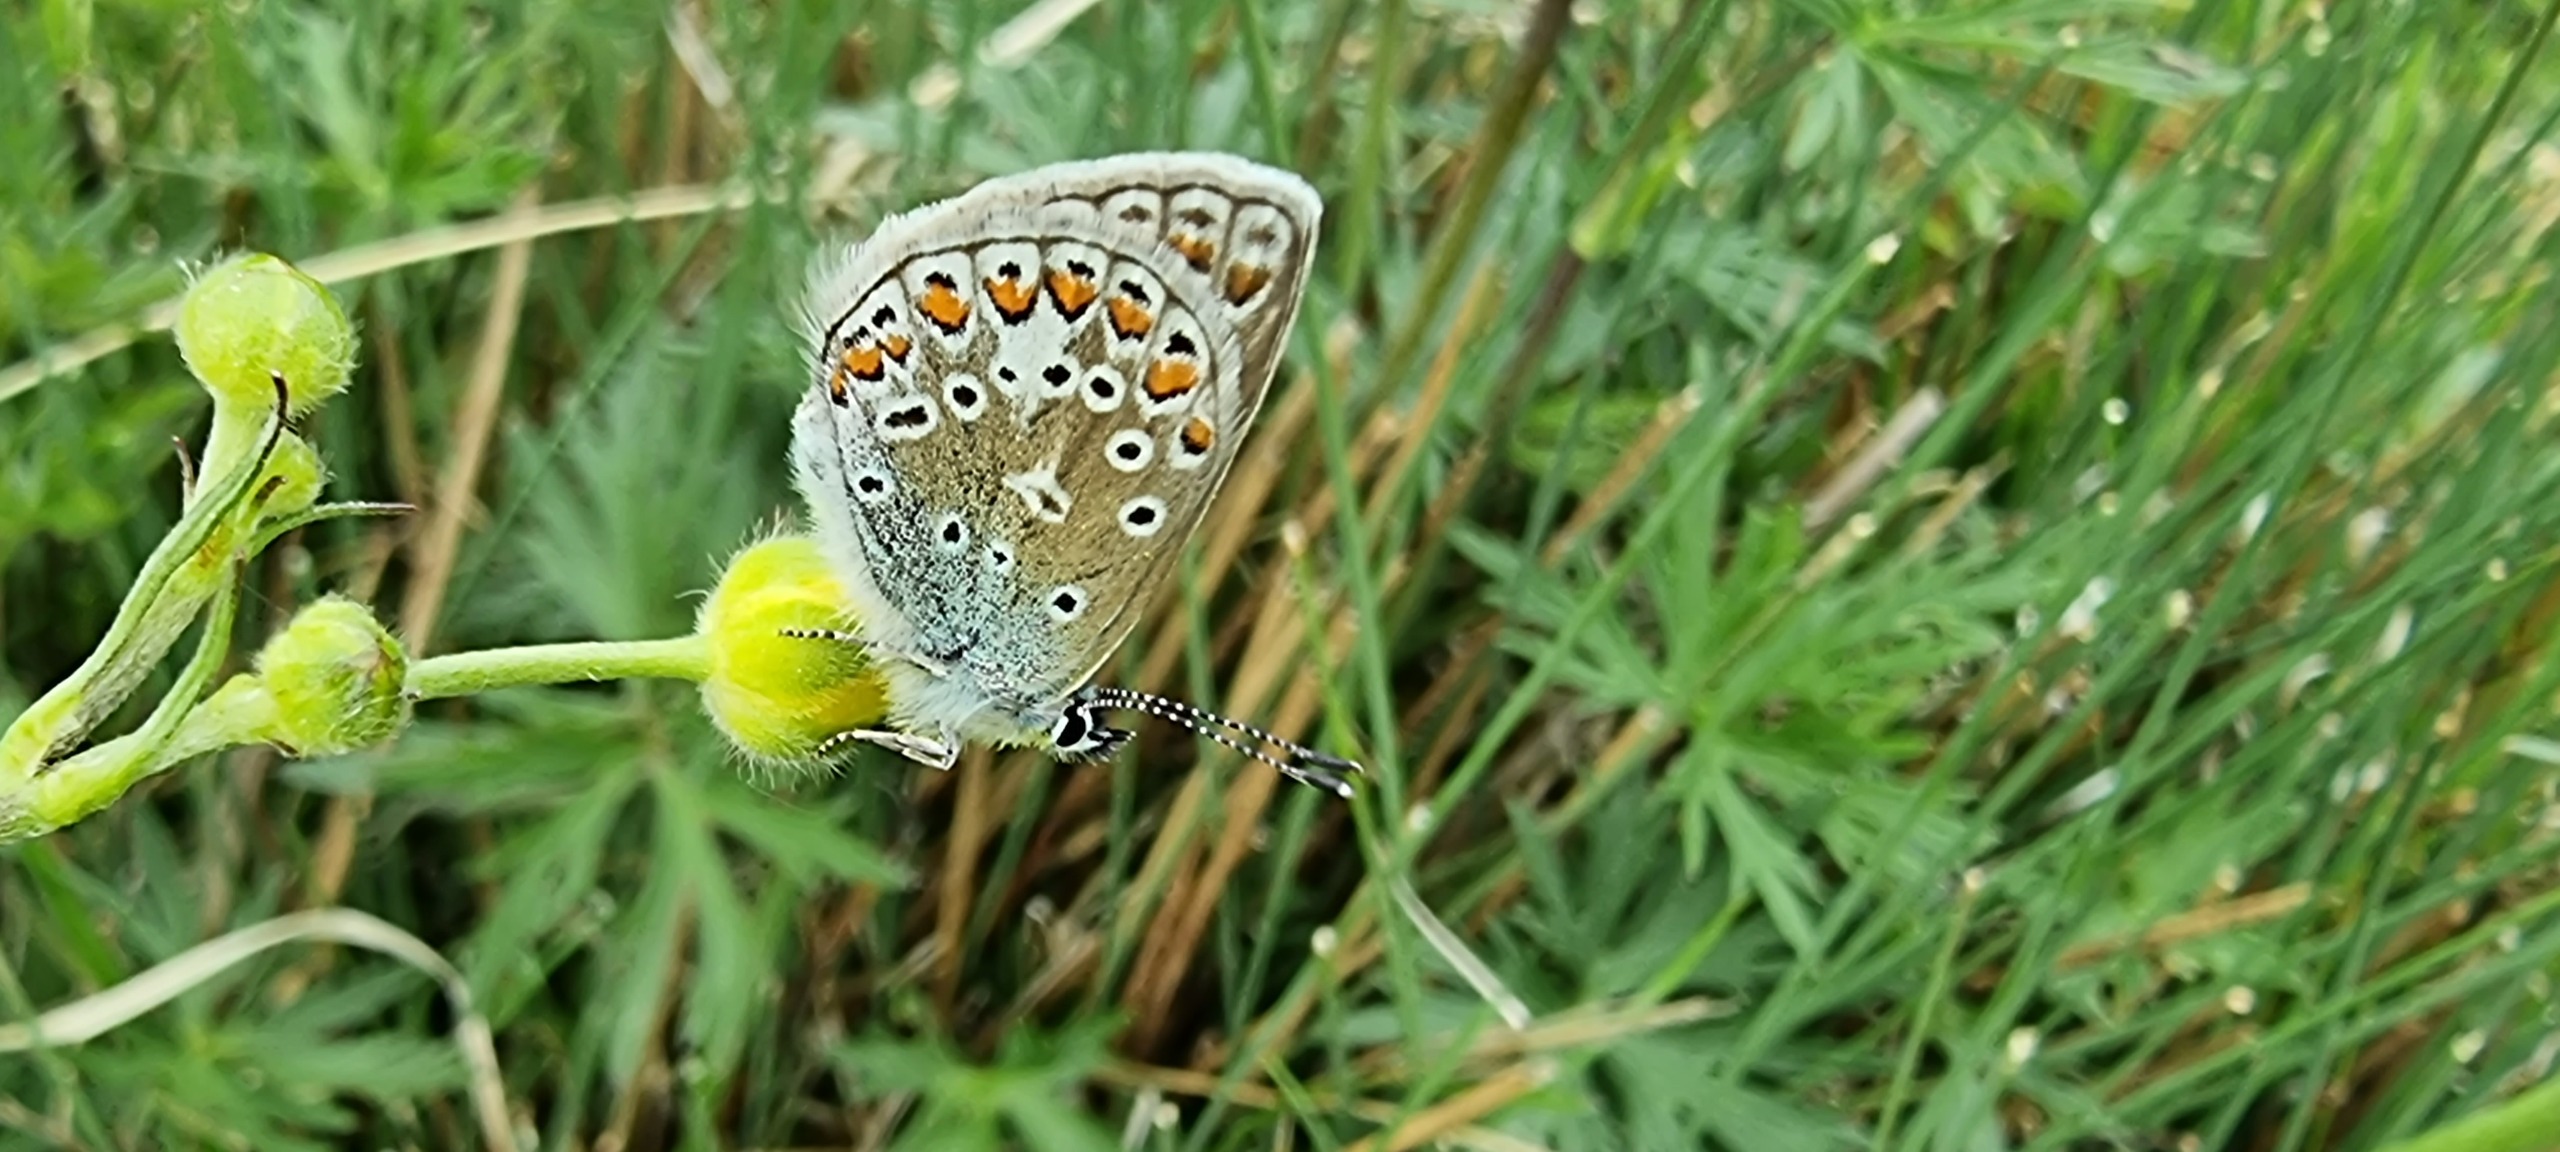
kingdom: Animalia
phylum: Arthropoda
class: Insecta
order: Lepidoptera
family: Lycaenidae
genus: Polyommatus
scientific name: Polyommatus icarus
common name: Almindelig blåfugl
